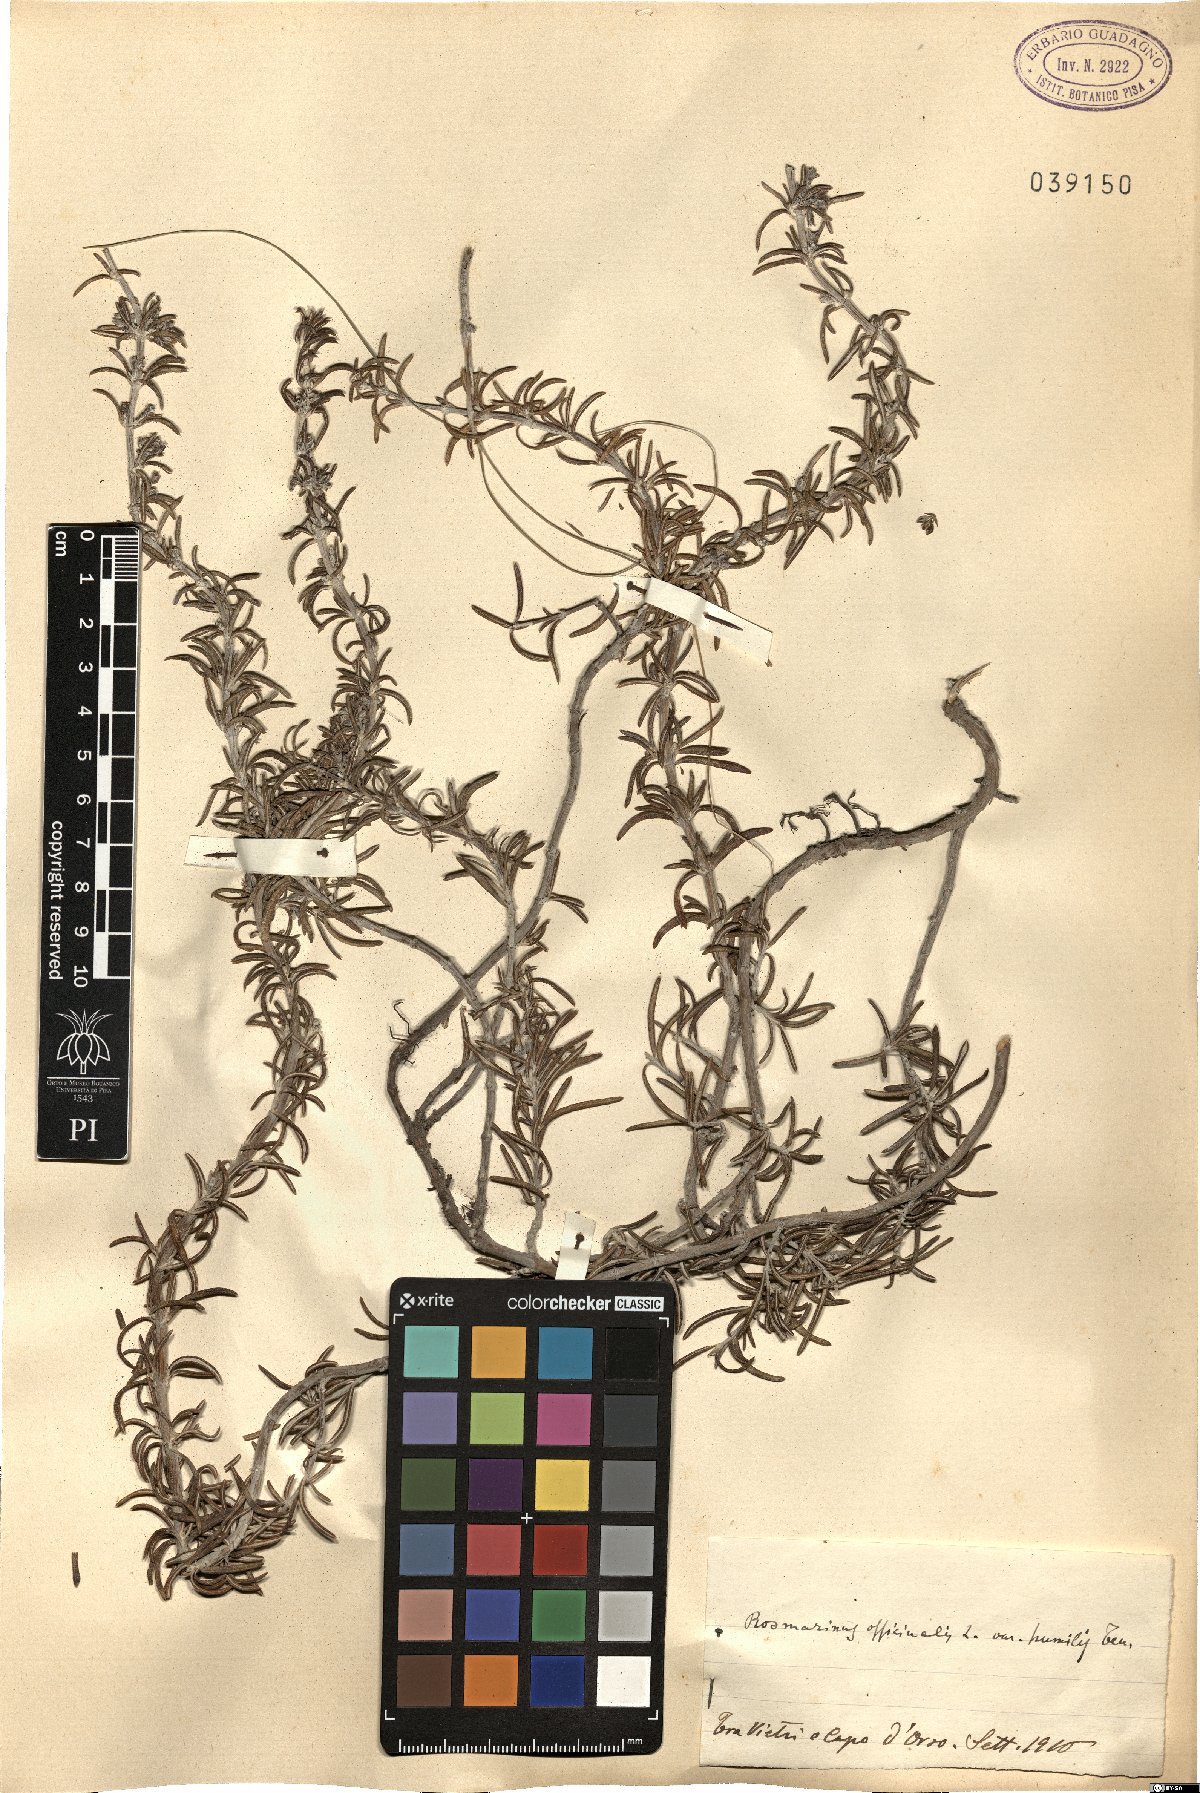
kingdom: Plantae
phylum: Tracheophyta
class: Magnoliopsida
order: Lamiales
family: Lamiaceae
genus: Salvia
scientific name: Salvia rosmarinus
